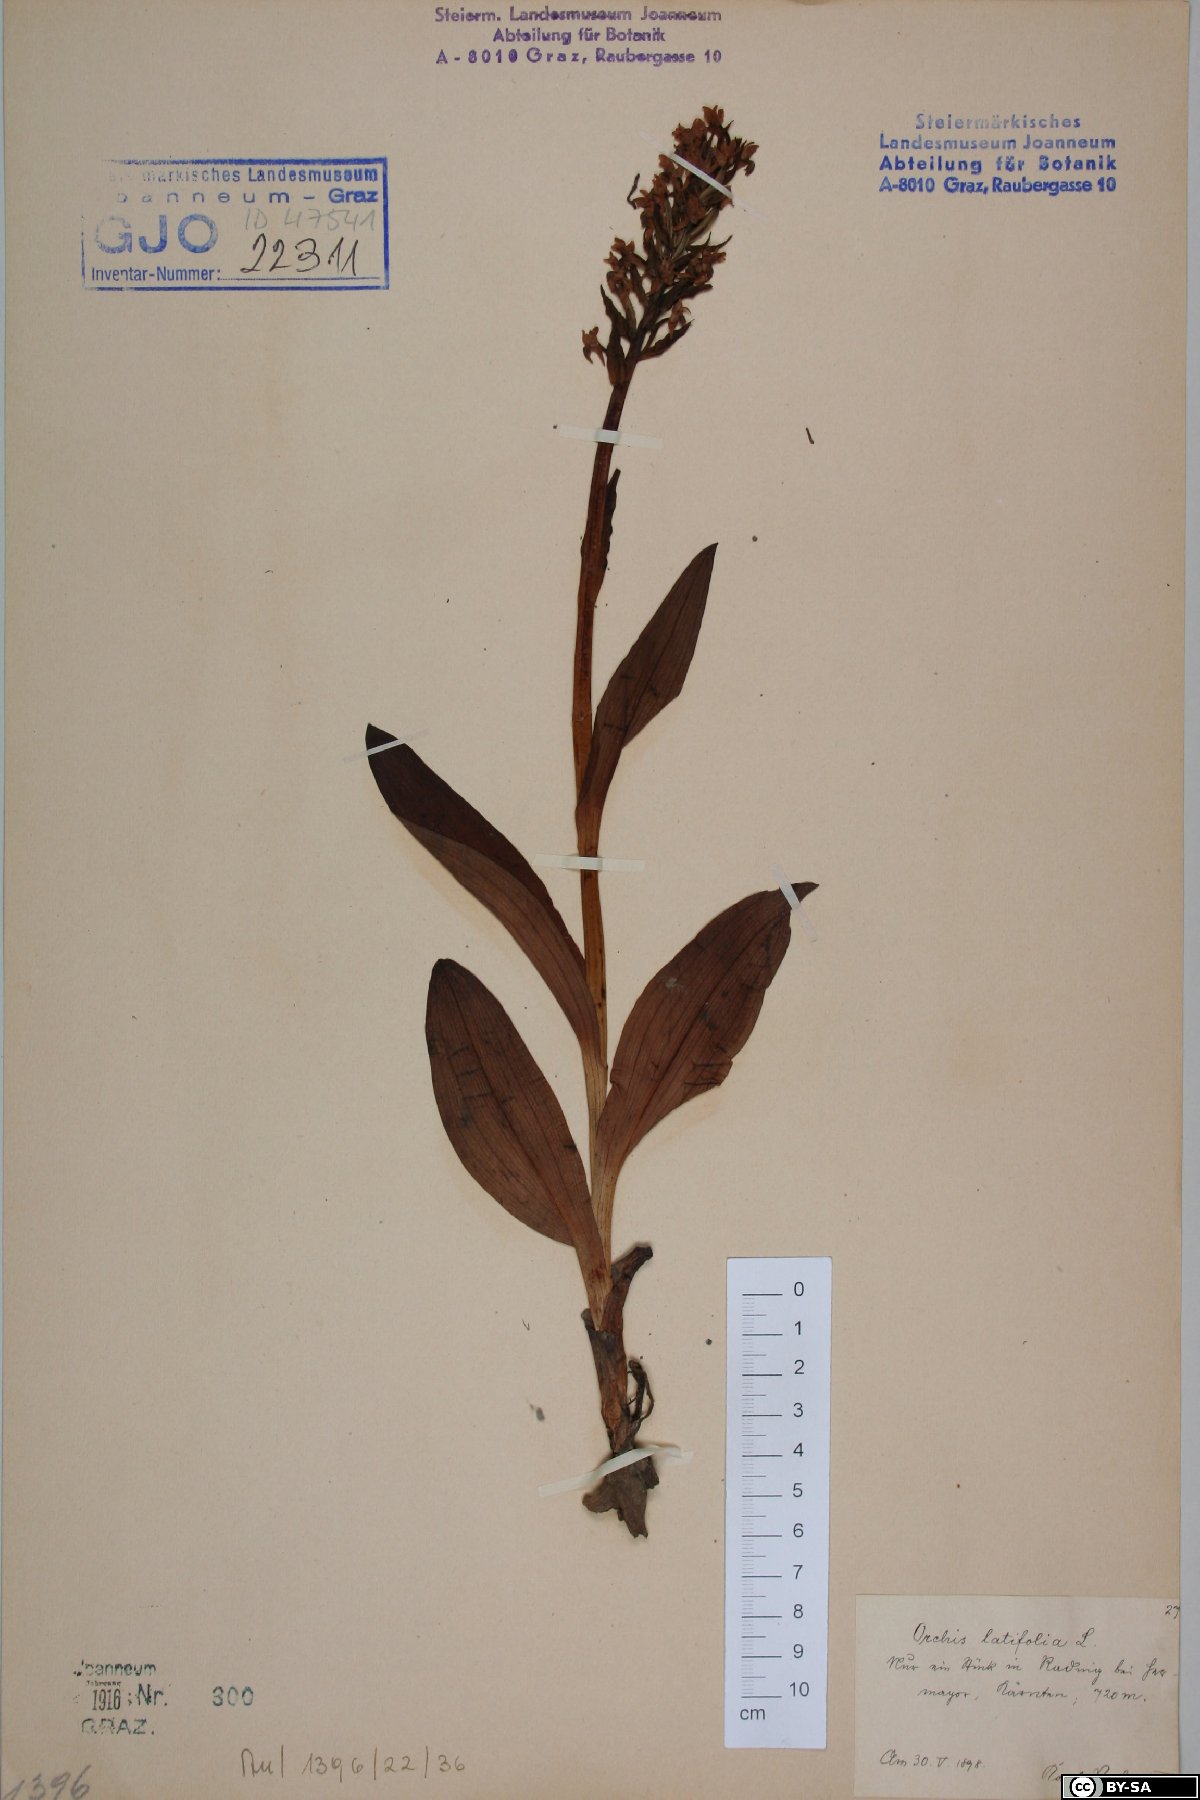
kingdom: Plantae
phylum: Tracheophyta
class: Liliopsida
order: Asparagales
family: Orchidaceae
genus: Dactylorhiza
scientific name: Dactylorhiza incarnata
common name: Early marsh-orchid
